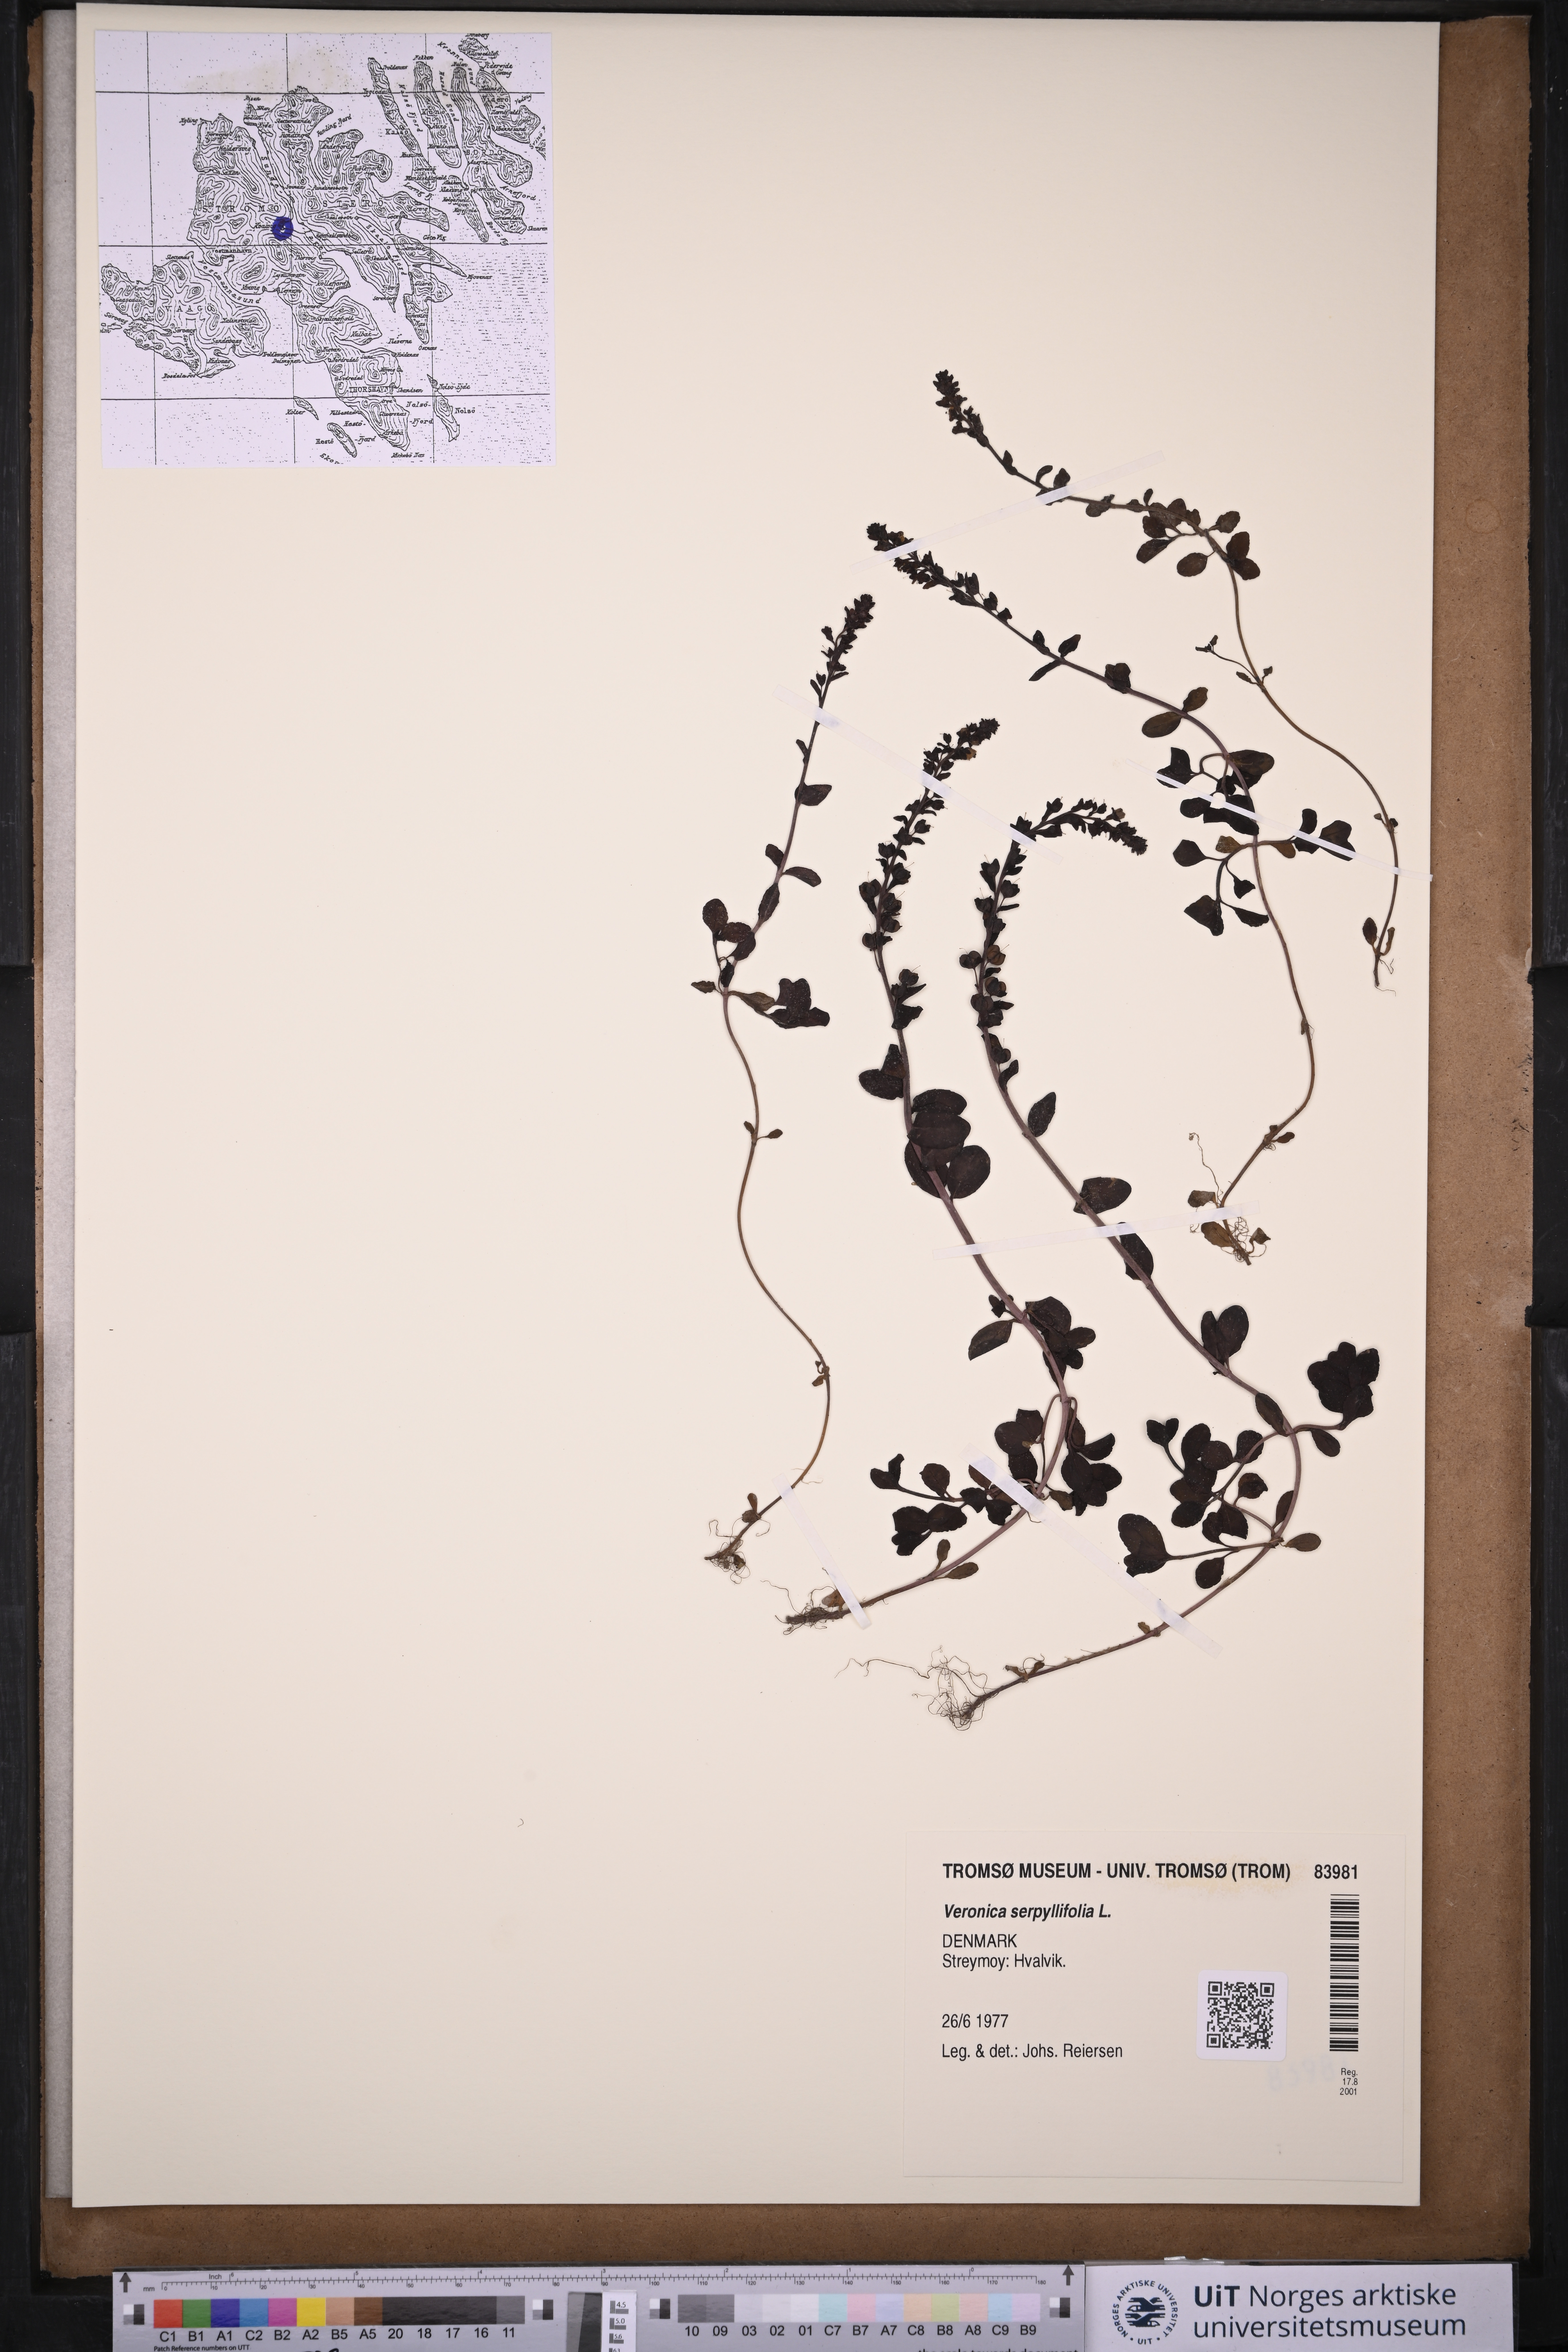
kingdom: Plantae
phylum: Tracheophyta
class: Magnoliopsida
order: Lamiales
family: Plantaginaceae
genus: Veronica
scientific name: Veronica serpyllifolia
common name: Thyme-leaved speedwell
